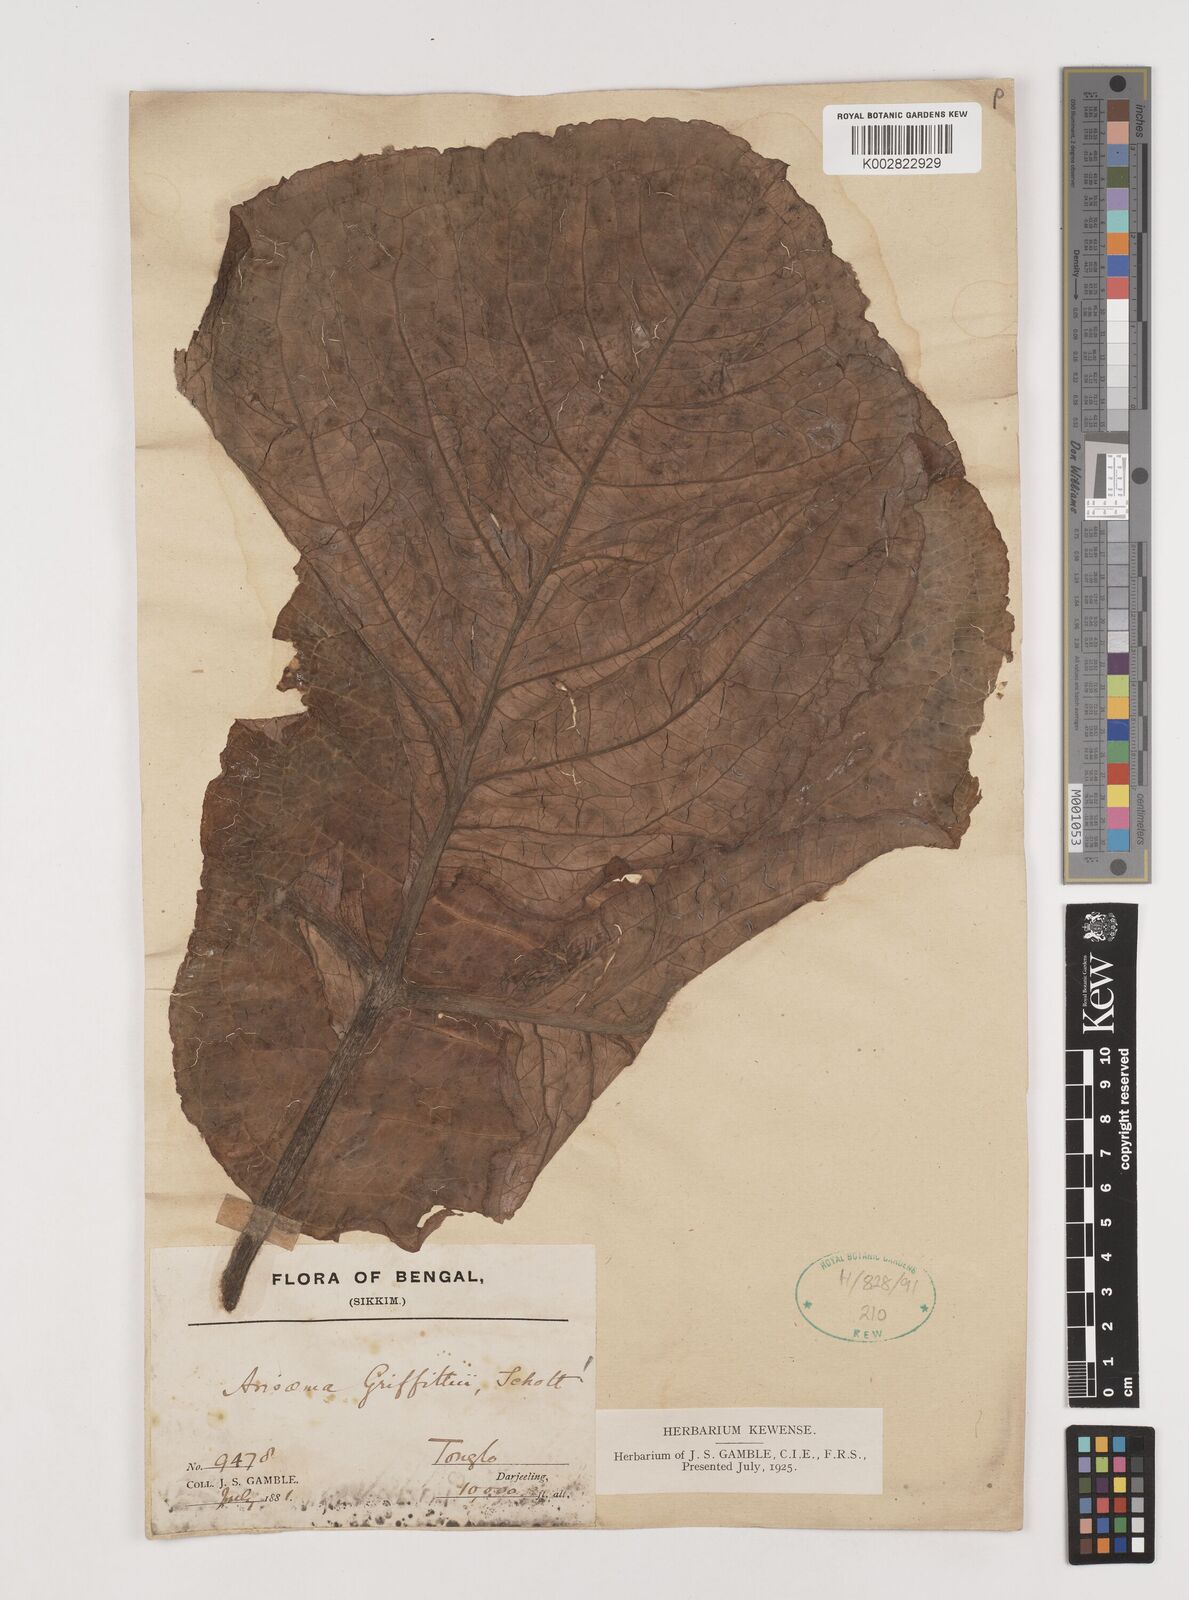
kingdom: Plantae
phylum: Tracheophyta
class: Liliopsida
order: Alismatales
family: Araceae
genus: Arisaema
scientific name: Arisaema griffithii
